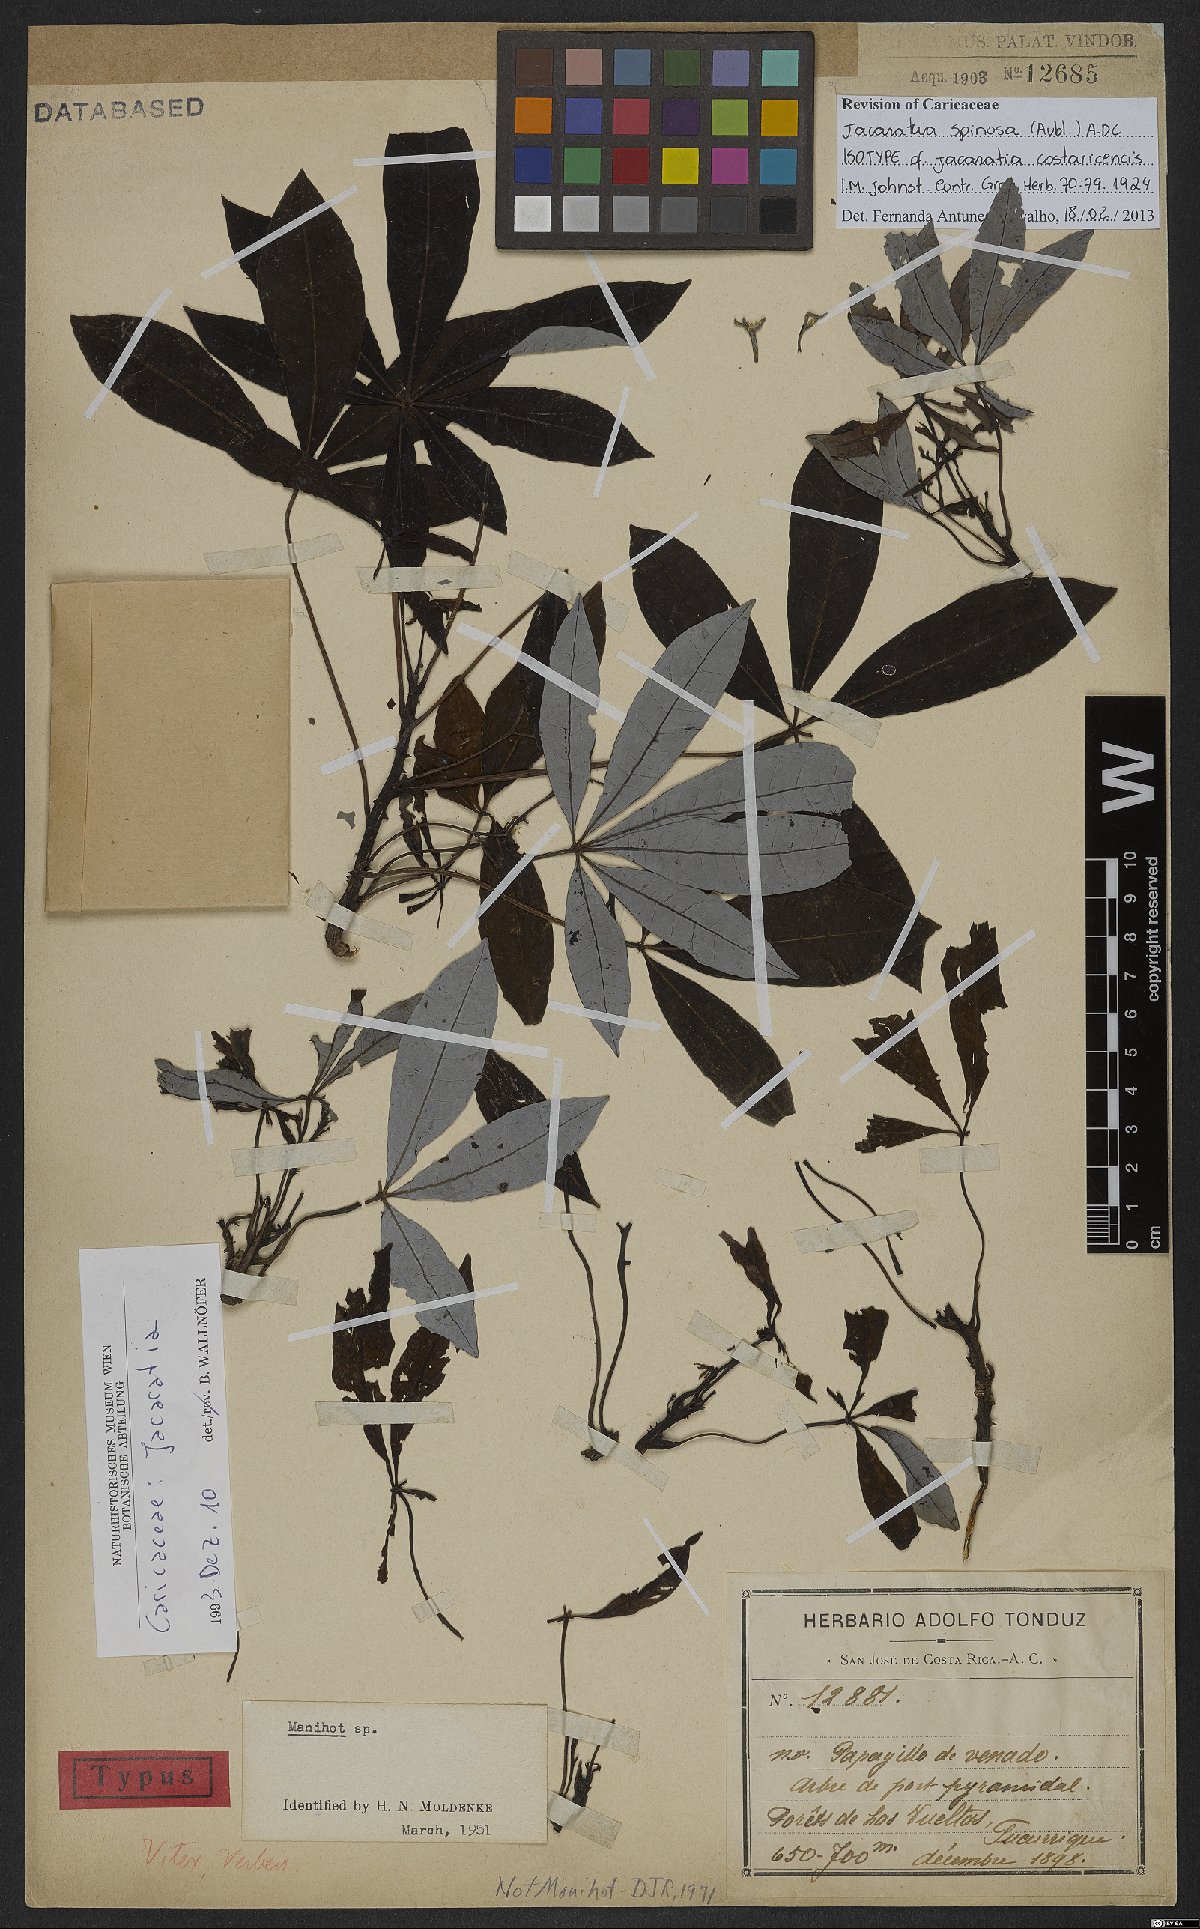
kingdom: Plantae
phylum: Tracheophyta
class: Magnoliopsida
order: Brassicales
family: Caricaceae
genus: Jacaratia
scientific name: Jacaratia spinosa
